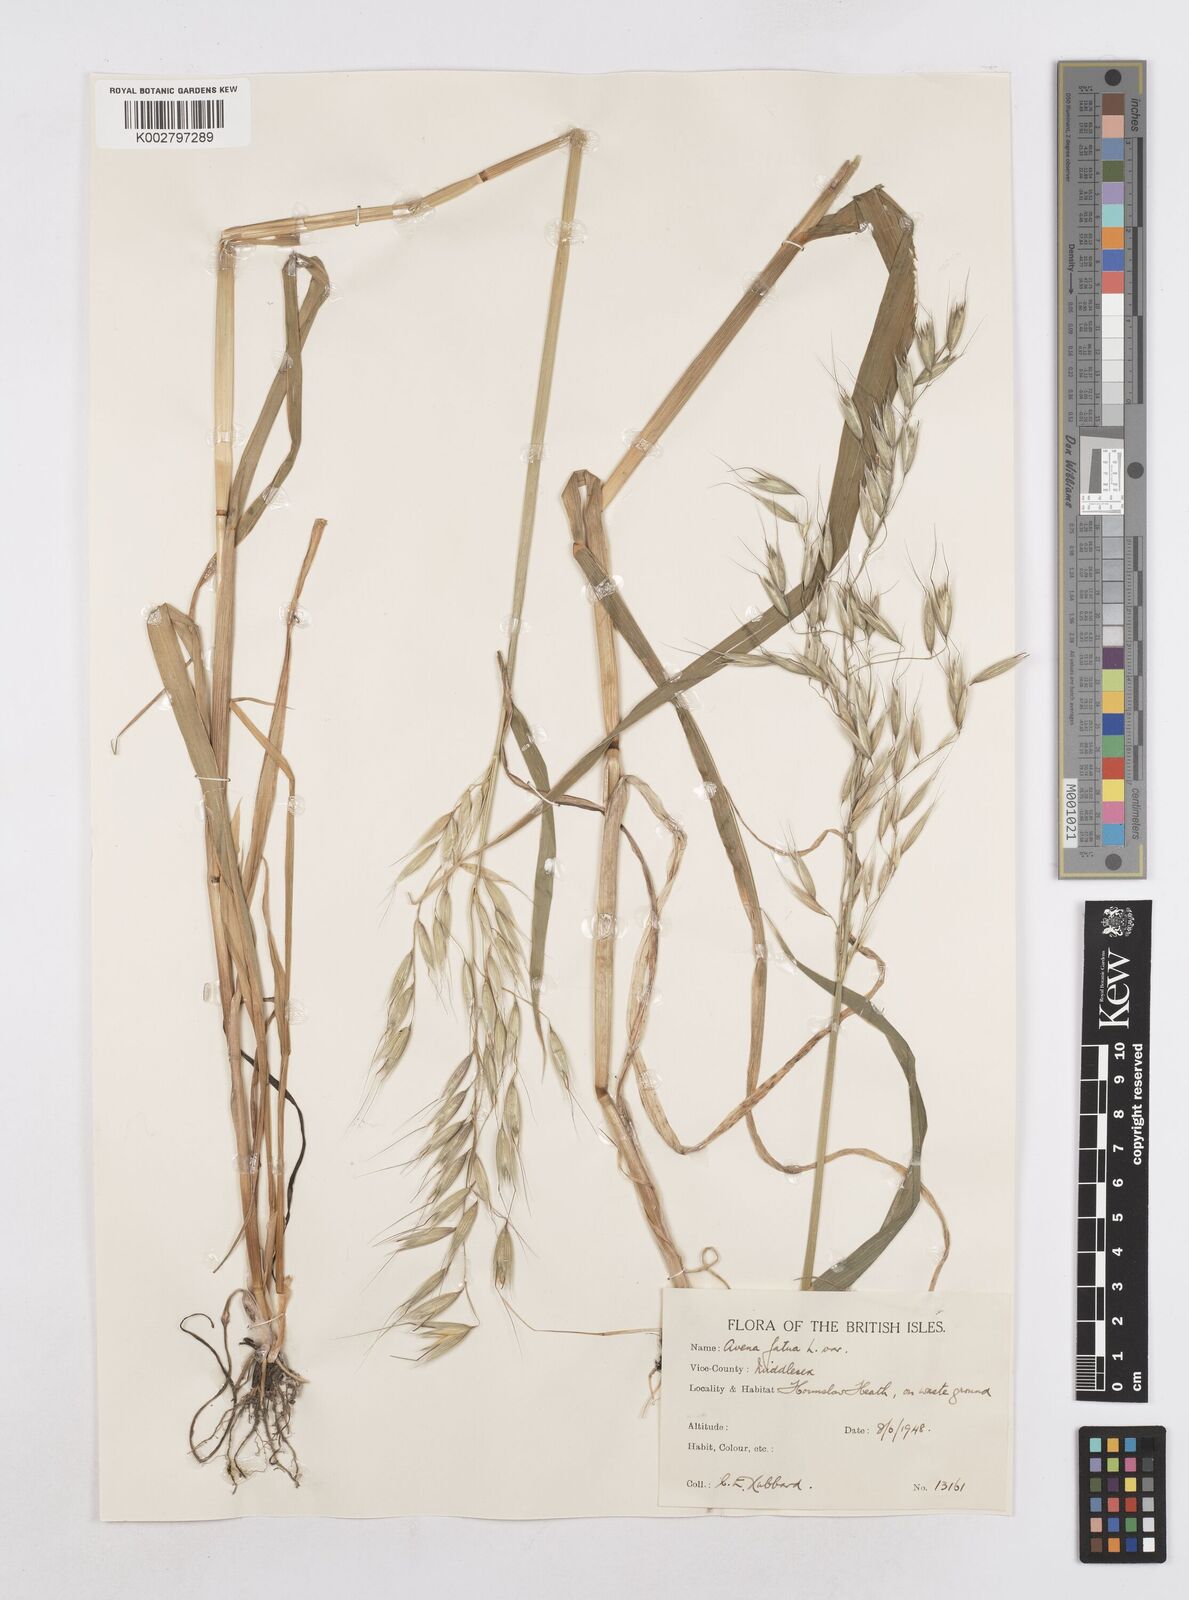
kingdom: Plantae
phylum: Tracheophyta
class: Liliopsida
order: Poales
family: Poaceae
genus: Avena
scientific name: Avena fatua
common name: Wild oat
